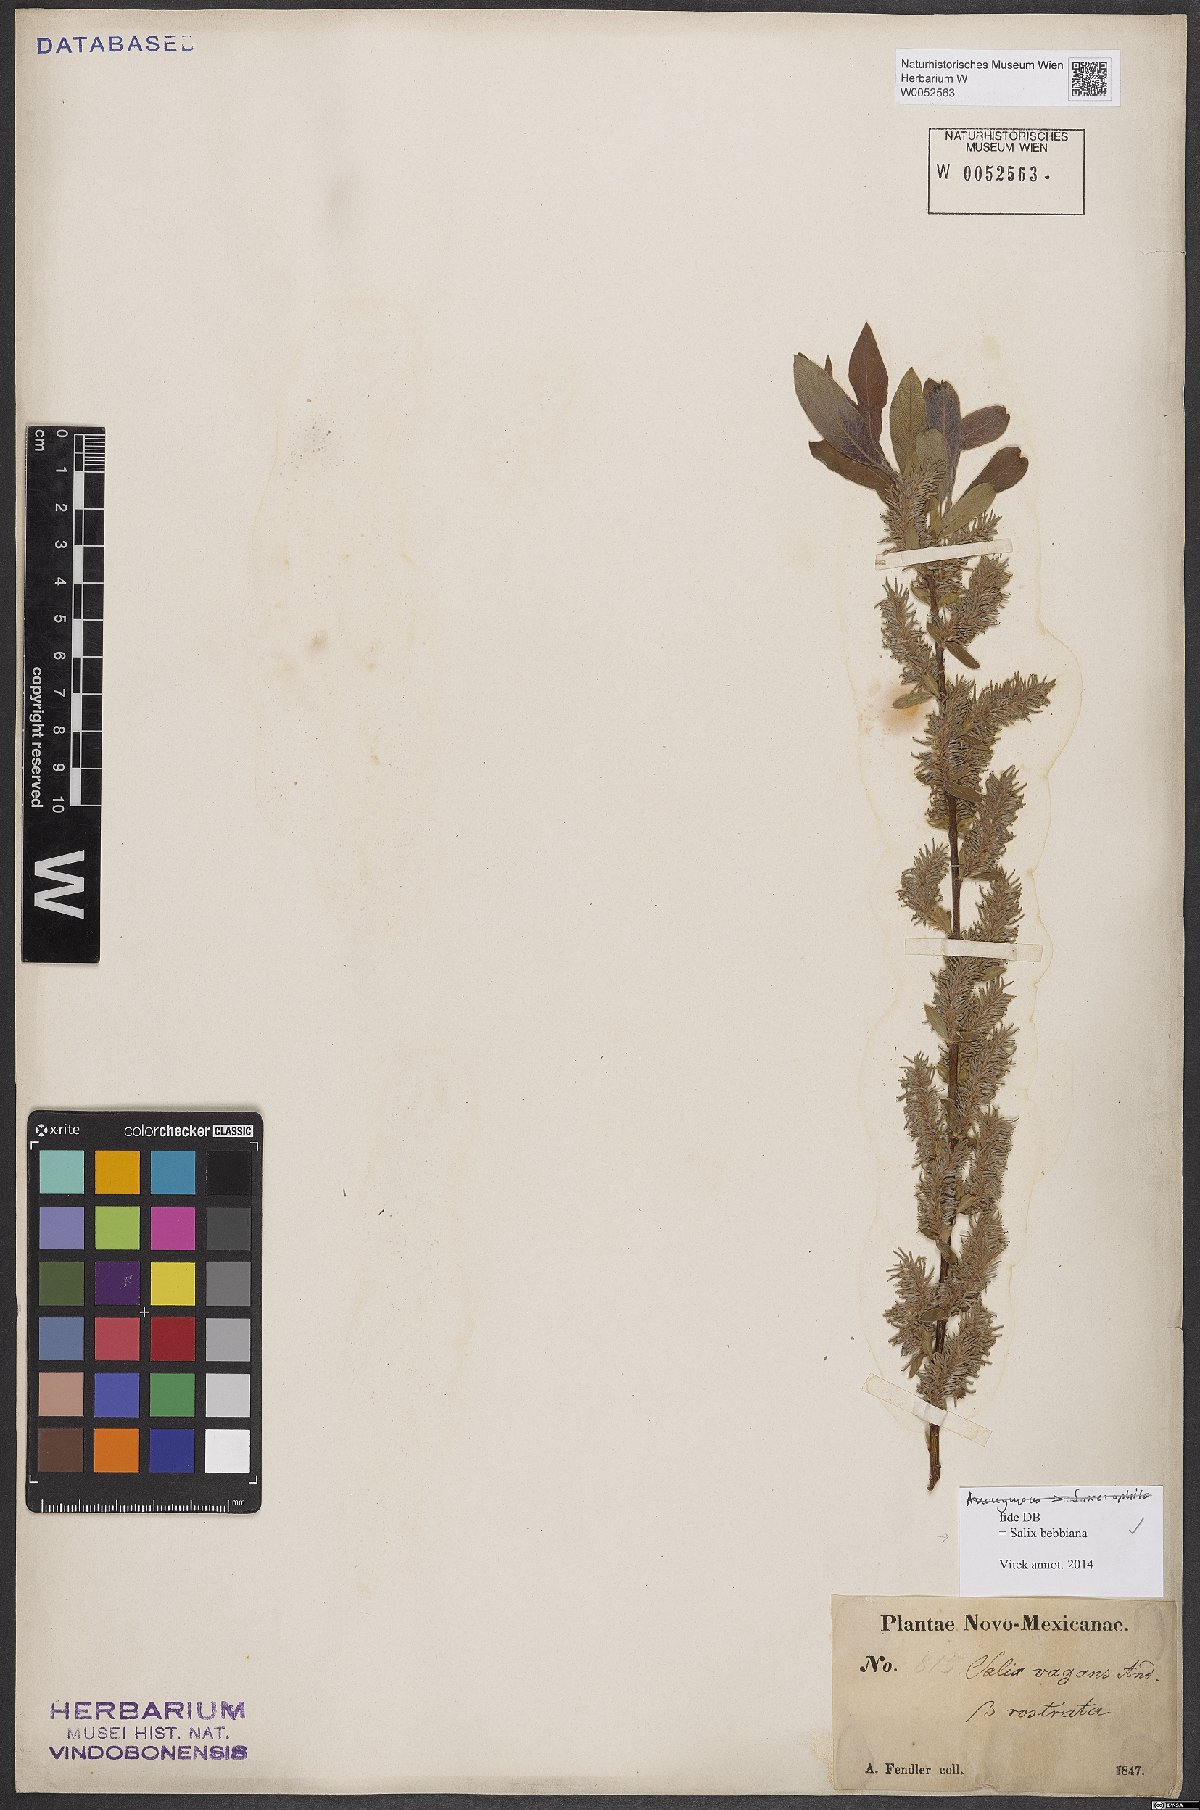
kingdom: Plantae
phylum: Tracheophyta
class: Magnoliopsida
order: Malpighiales
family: Salicaceae
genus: Salix
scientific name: Salix bebbiana
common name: Bebb's willow
